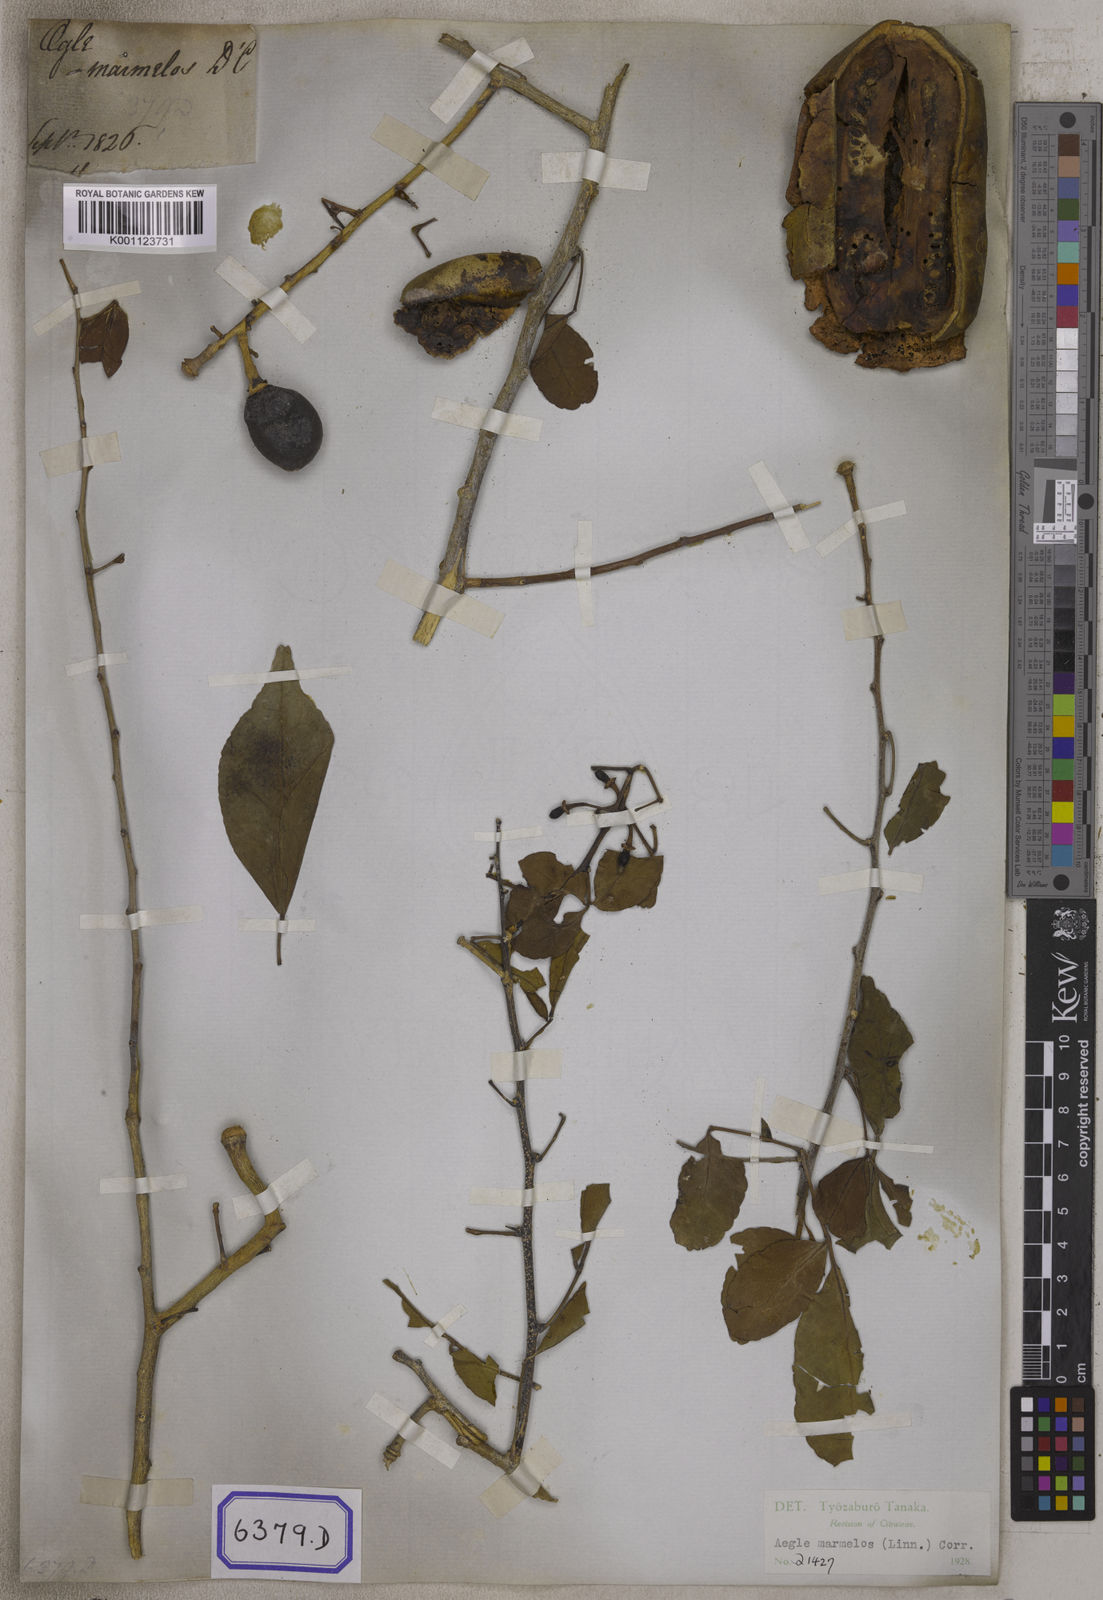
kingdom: Plantae
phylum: Tracheophyta
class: Magnoliopsida
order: Sapindales
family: Rutaceae
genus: Aegle
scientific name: Aegle marmelos
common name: Bael
